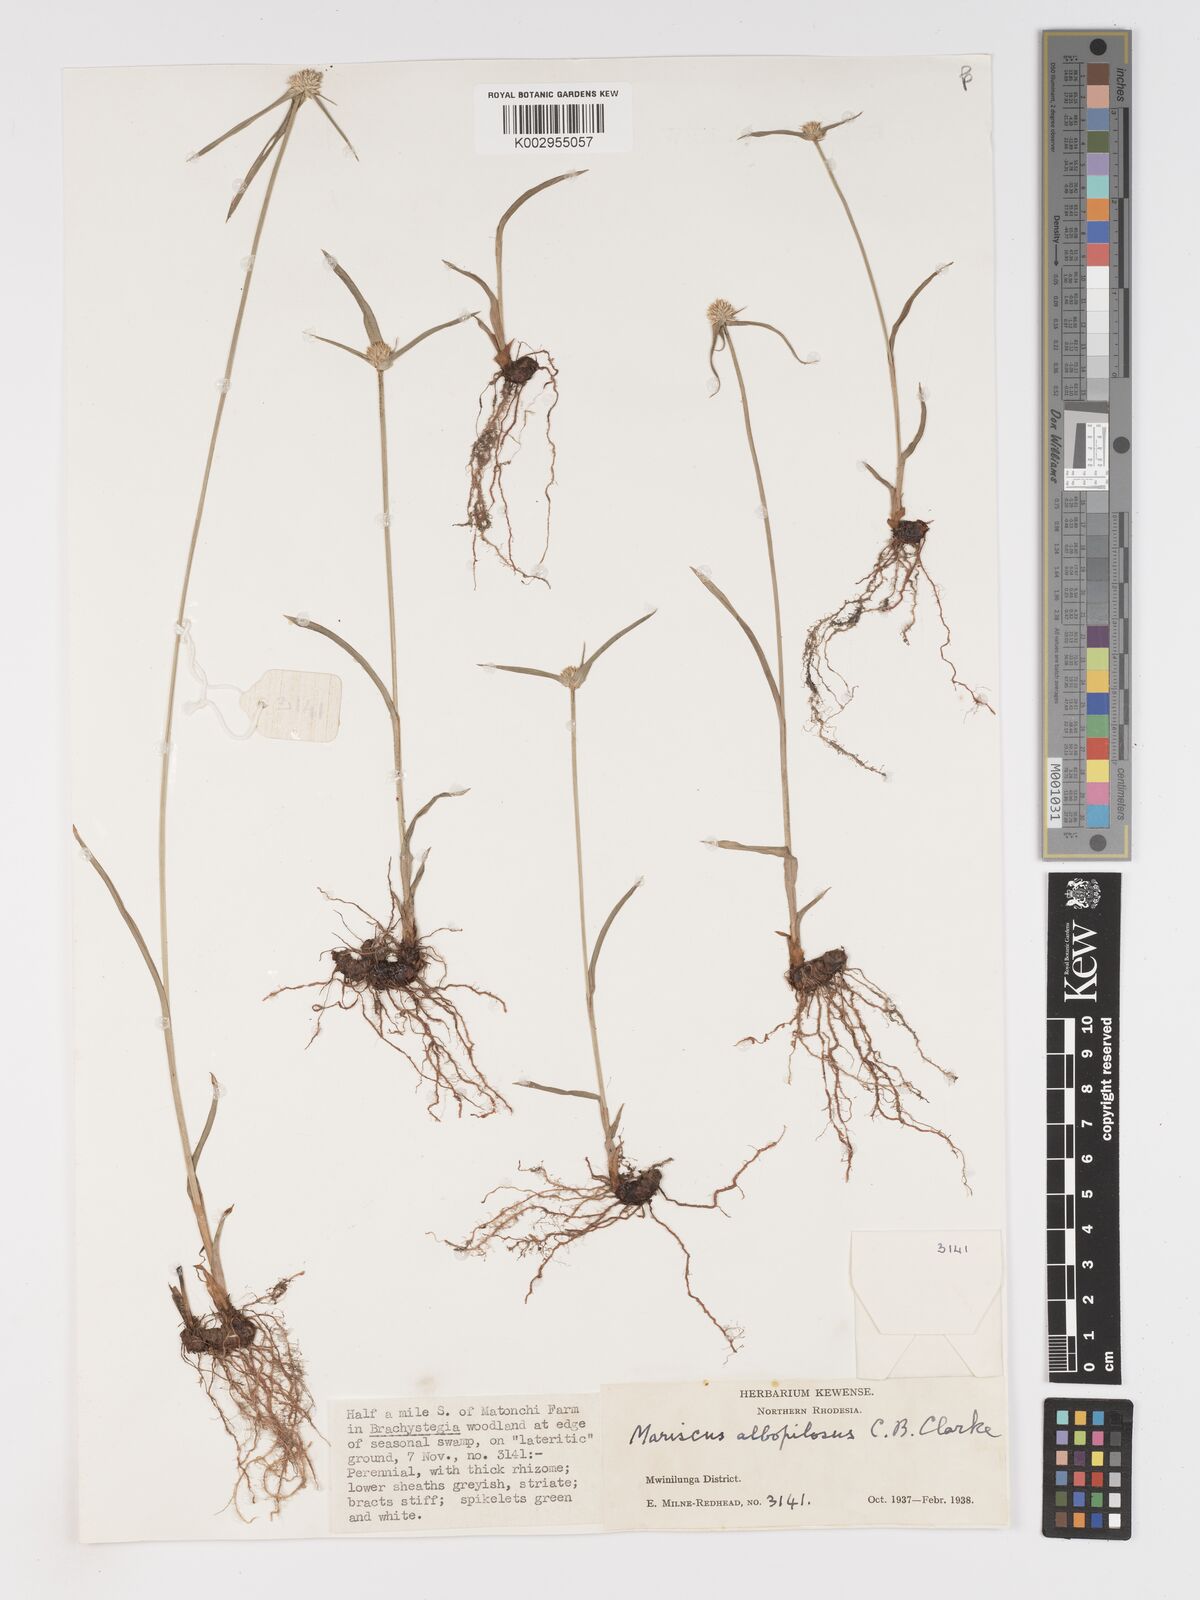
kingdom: Plantae
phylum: Tracheophyta
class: Liliopsida
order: Poales
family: Cyperaceae
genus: Cyperus
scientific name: Cyperus albopilosus
